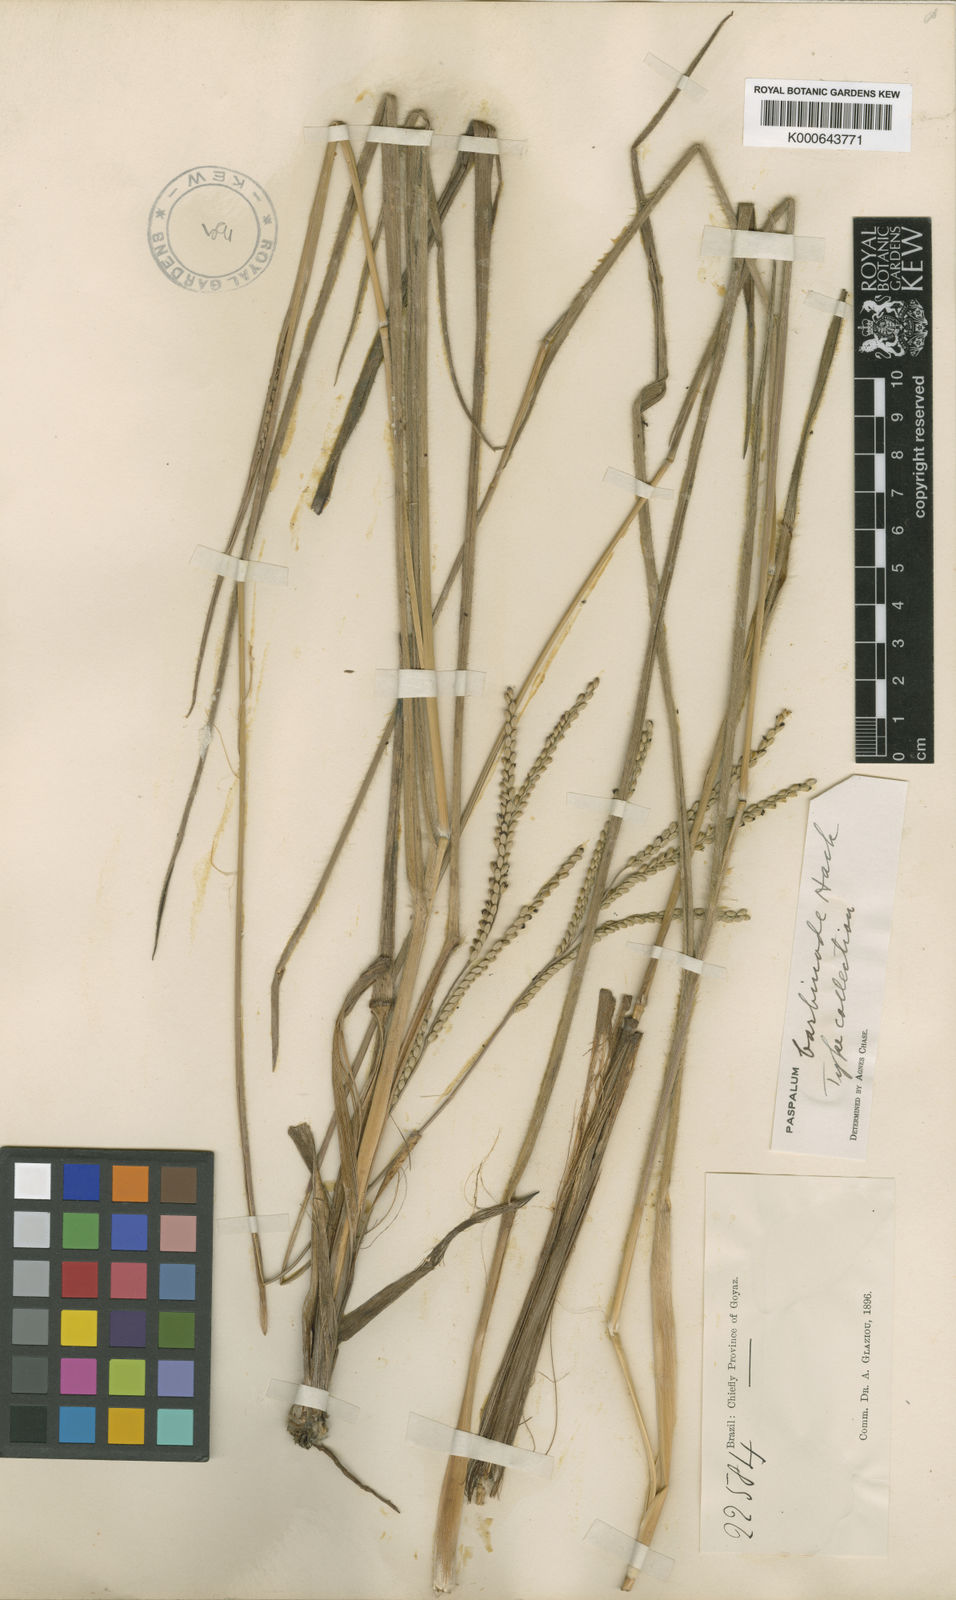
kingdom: Plantae
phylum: Tracheophyta
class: Liliopsida
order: Poales
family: Poaceae
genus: Paspalum
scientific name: Paspalum barbinode
